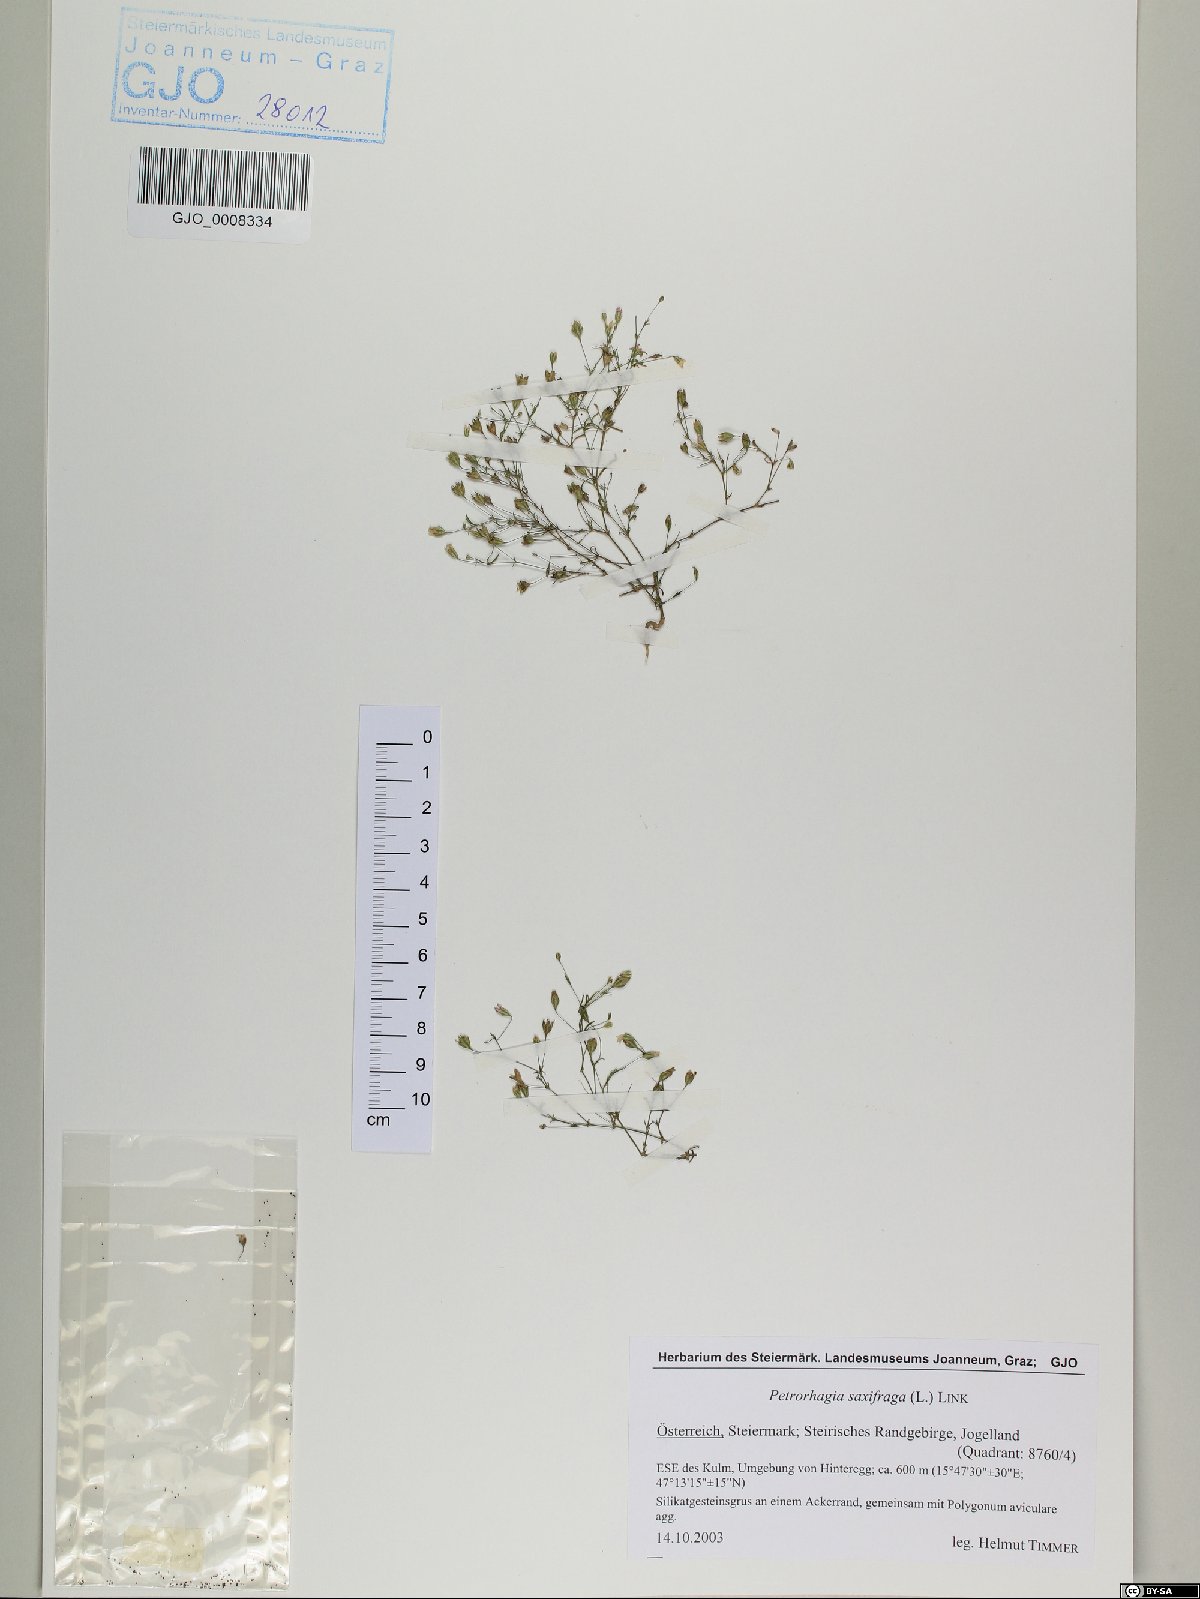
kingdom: Plantae
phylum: Tracheophyta
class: Magnoliopsida
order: Caryophyllales
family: Caryophyllaceae
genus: Psammophiliella
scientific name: Psammophiliella muralis
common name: Cushion baby's-breath
